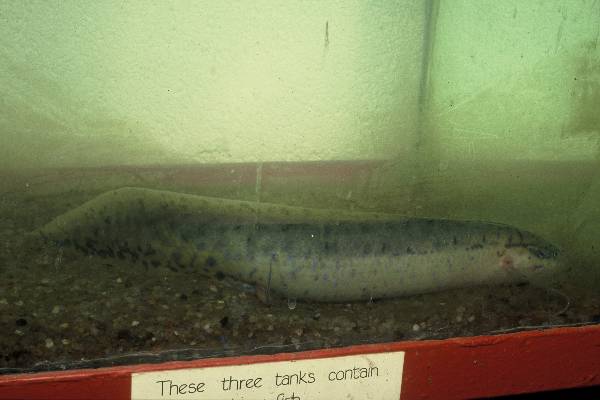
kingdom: Animalia
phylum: Chordata
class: Dipneusti
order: Ceratodontiformes
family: Protopteridae
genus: Protopterus
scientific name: Protopterus annectens
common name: Lungfish
